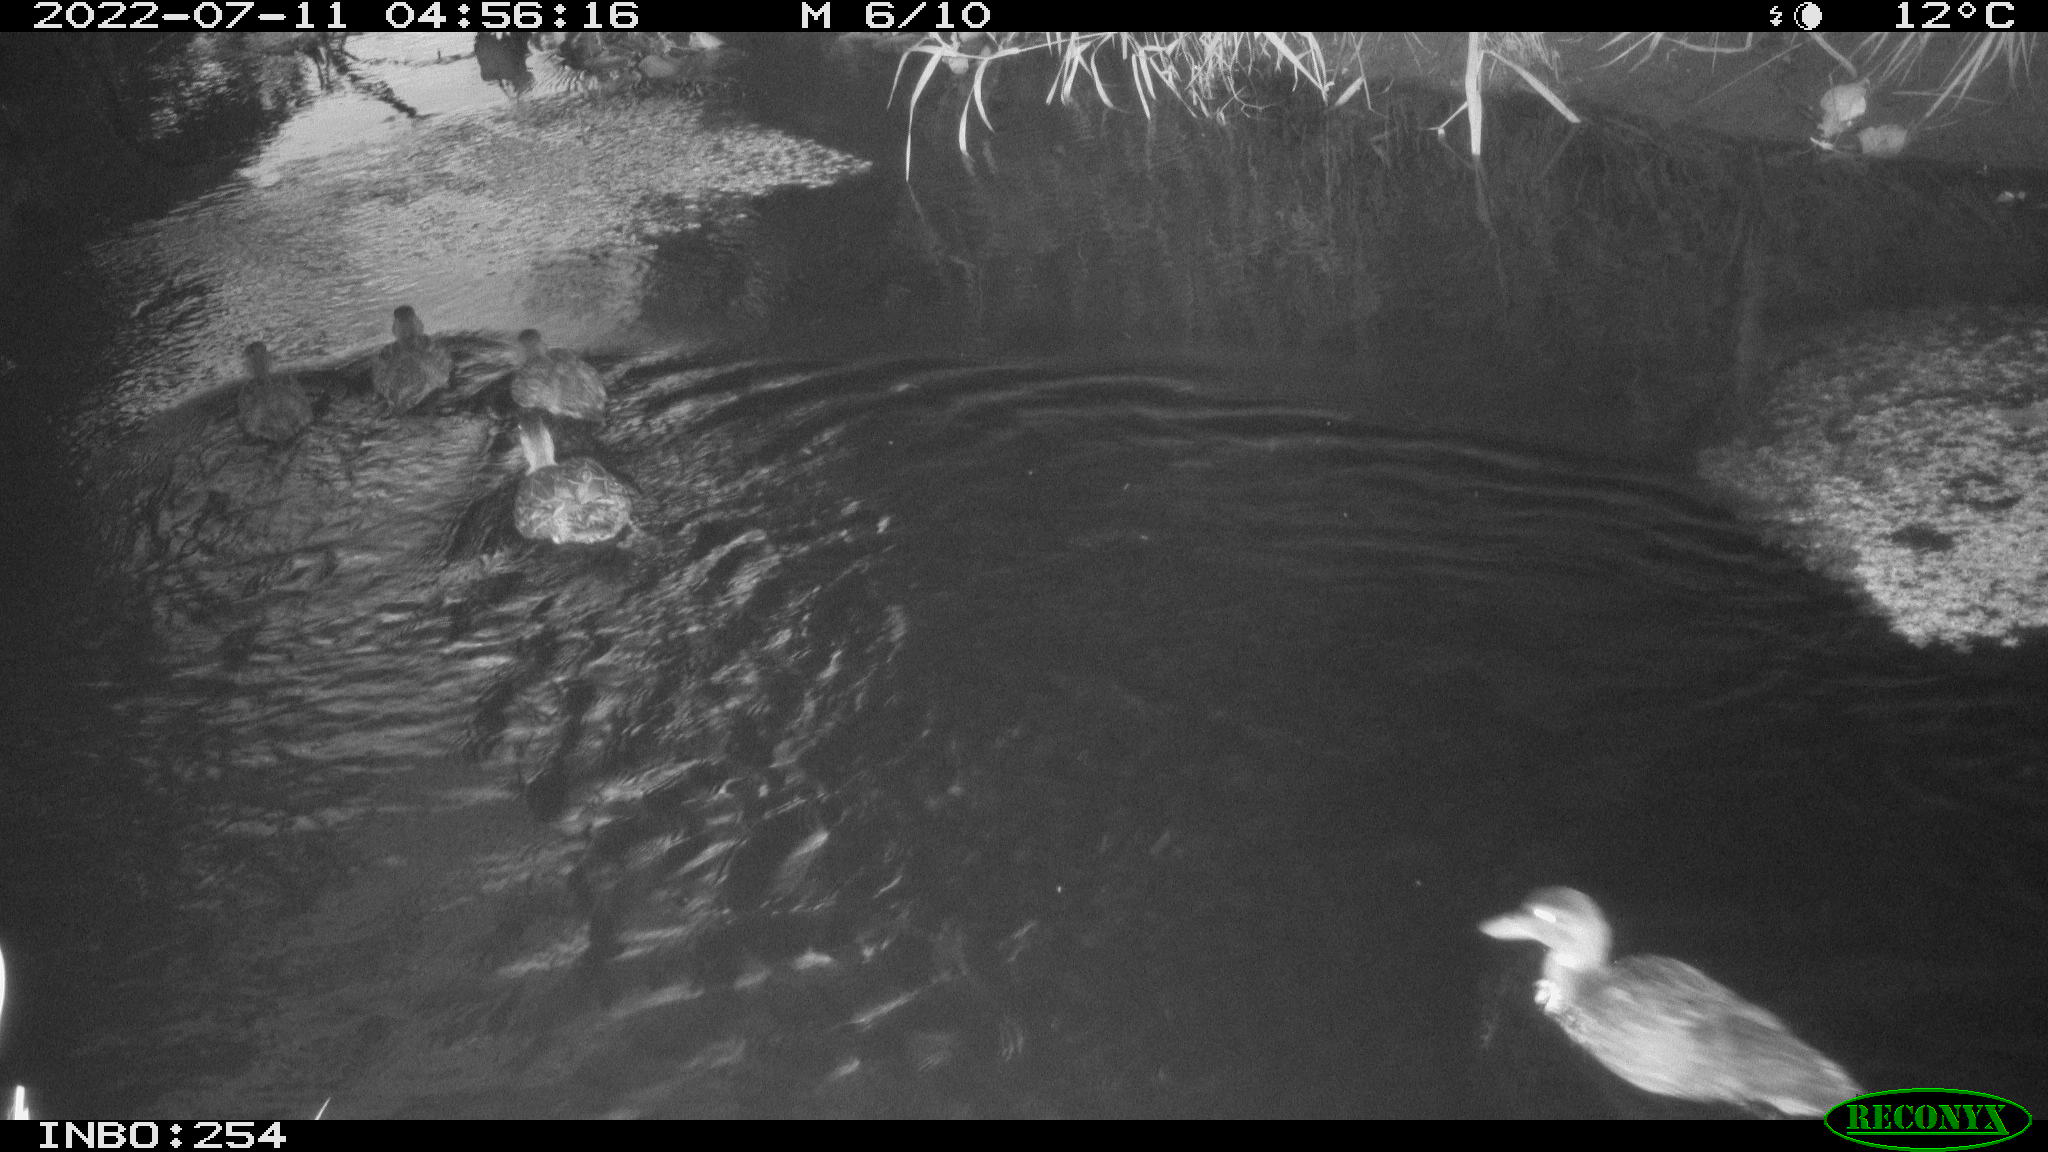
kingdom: Animalia
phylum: Chordata
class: Aves
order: Anseriformes
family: Anatidae
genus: Anas
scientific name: Anas platyrhynchos
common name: Mallard
